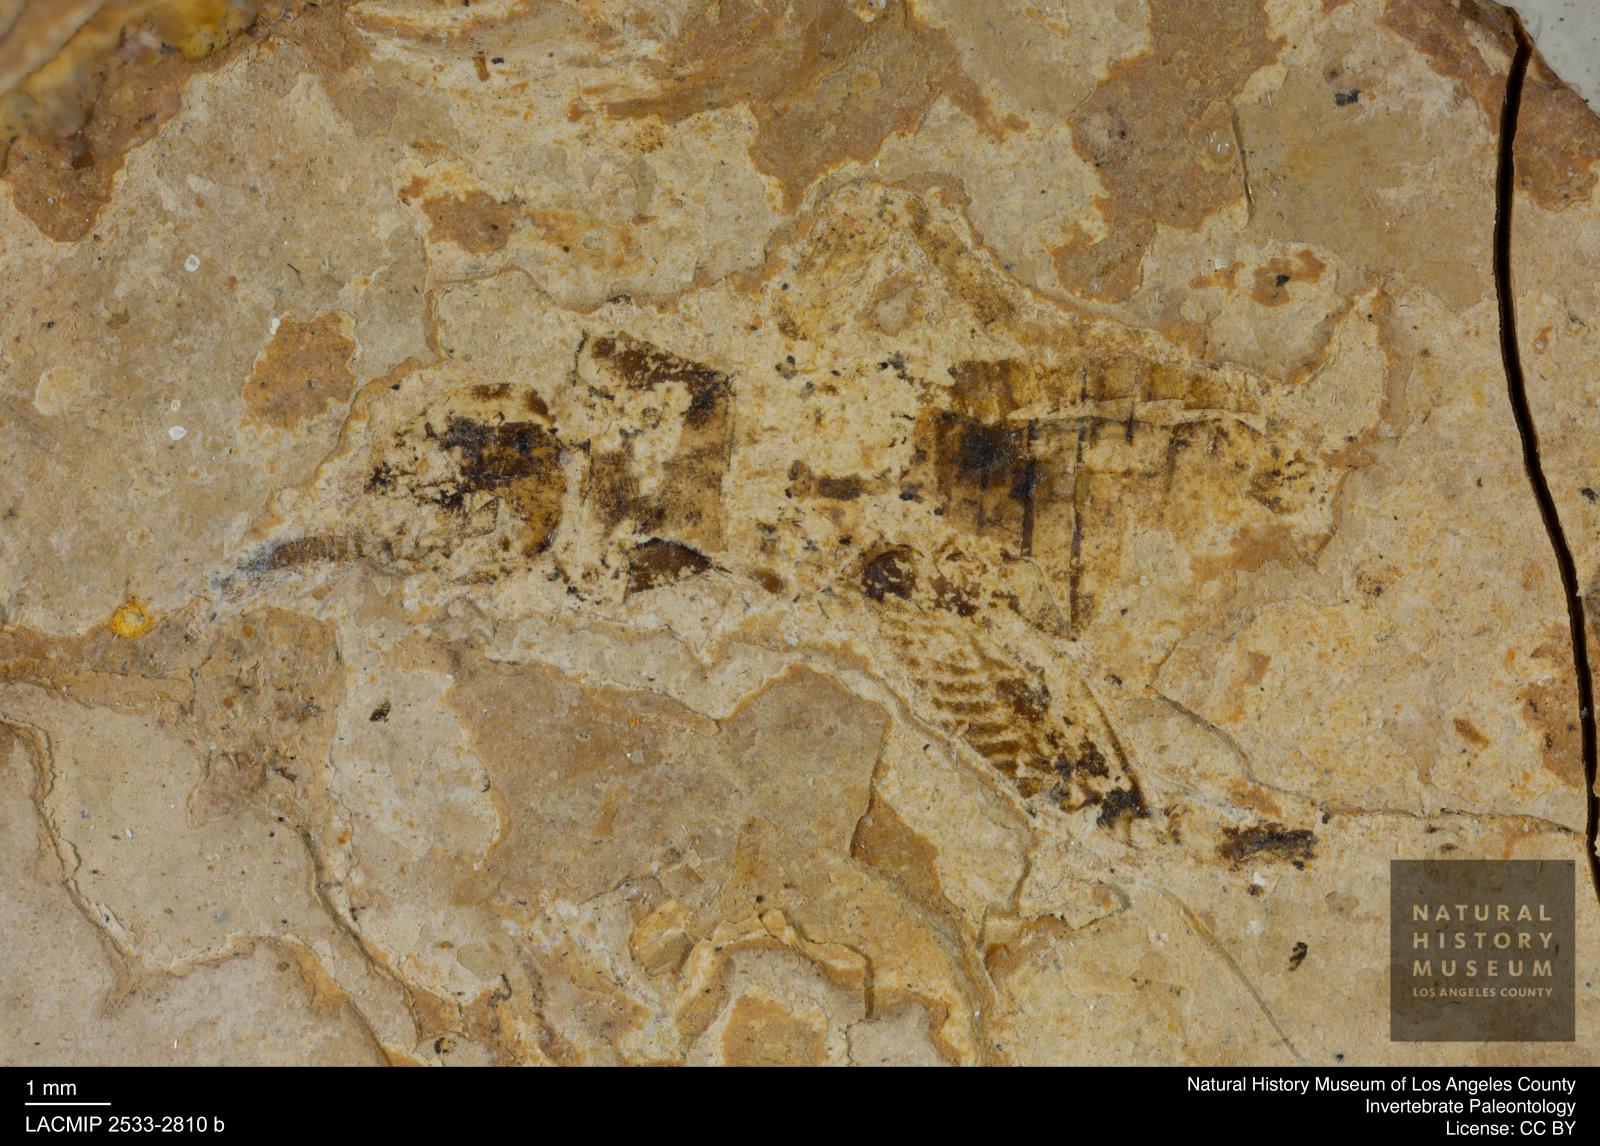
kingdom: Animalia
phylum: Arthropoda
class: Insecta
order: Orthoptera
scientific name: Orthoptera
